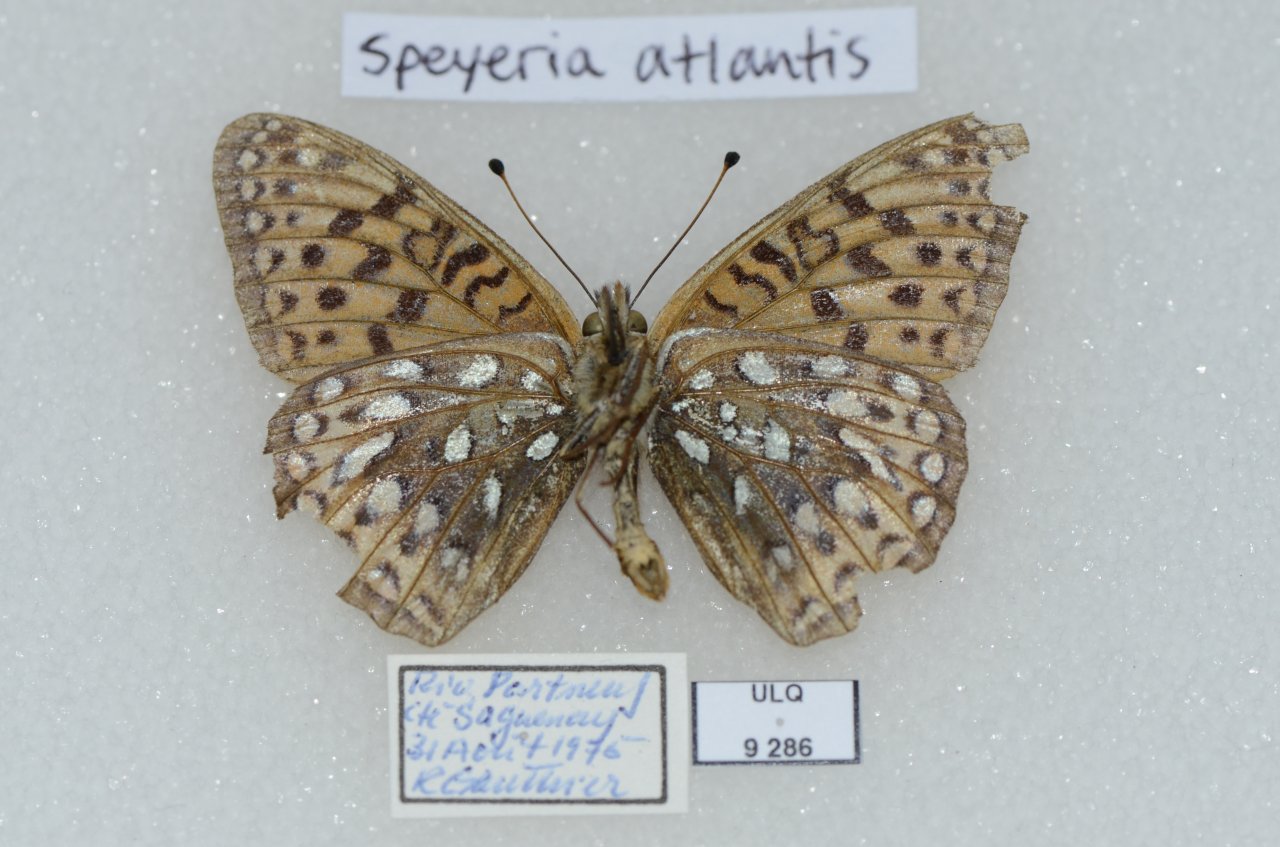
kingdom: Animalia
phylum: Arthropoda
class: Insecta
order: Lepidoptera
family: Nymphalidae
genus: Speyeria
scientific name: Speyeria atlantis
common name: Atlantis Fritillary
